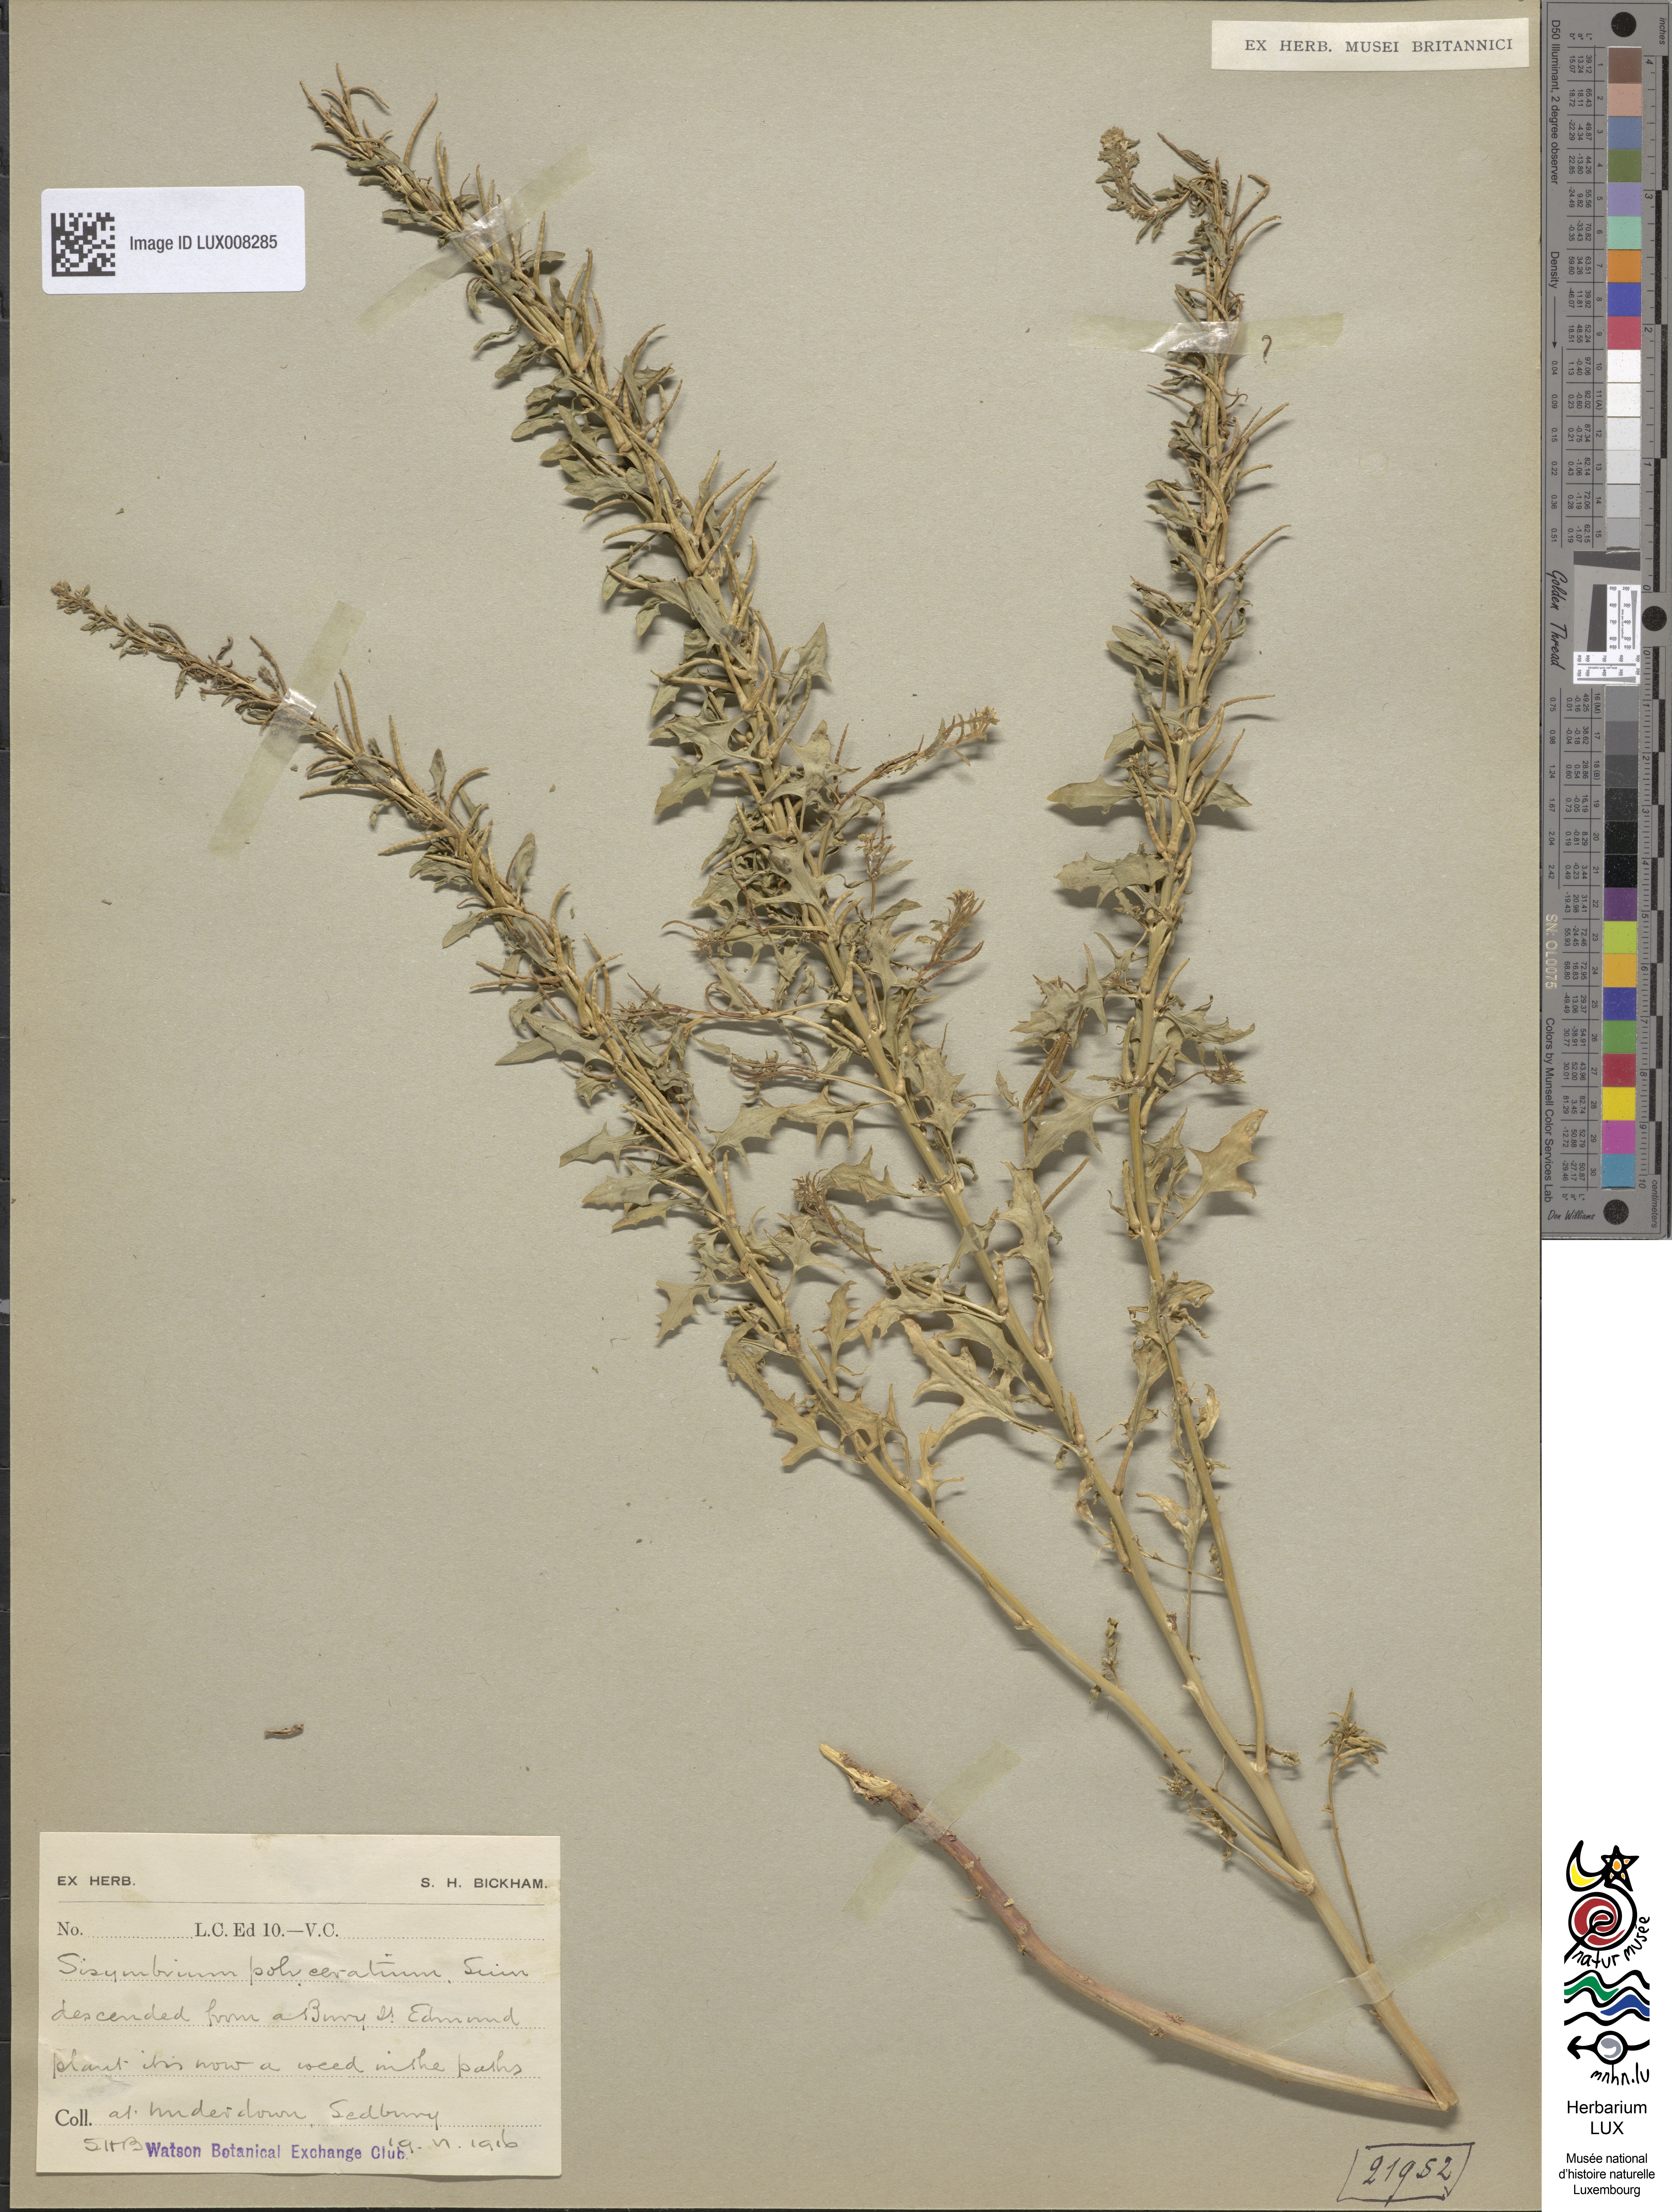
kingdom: Plantae
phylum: Tracheophyta
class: Magnoliopsida
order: Brassicales
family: Brassicaceae
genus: Sisymbrium
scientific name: Sisymbrium polyceratium
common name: Shortfruit hedgemustard
